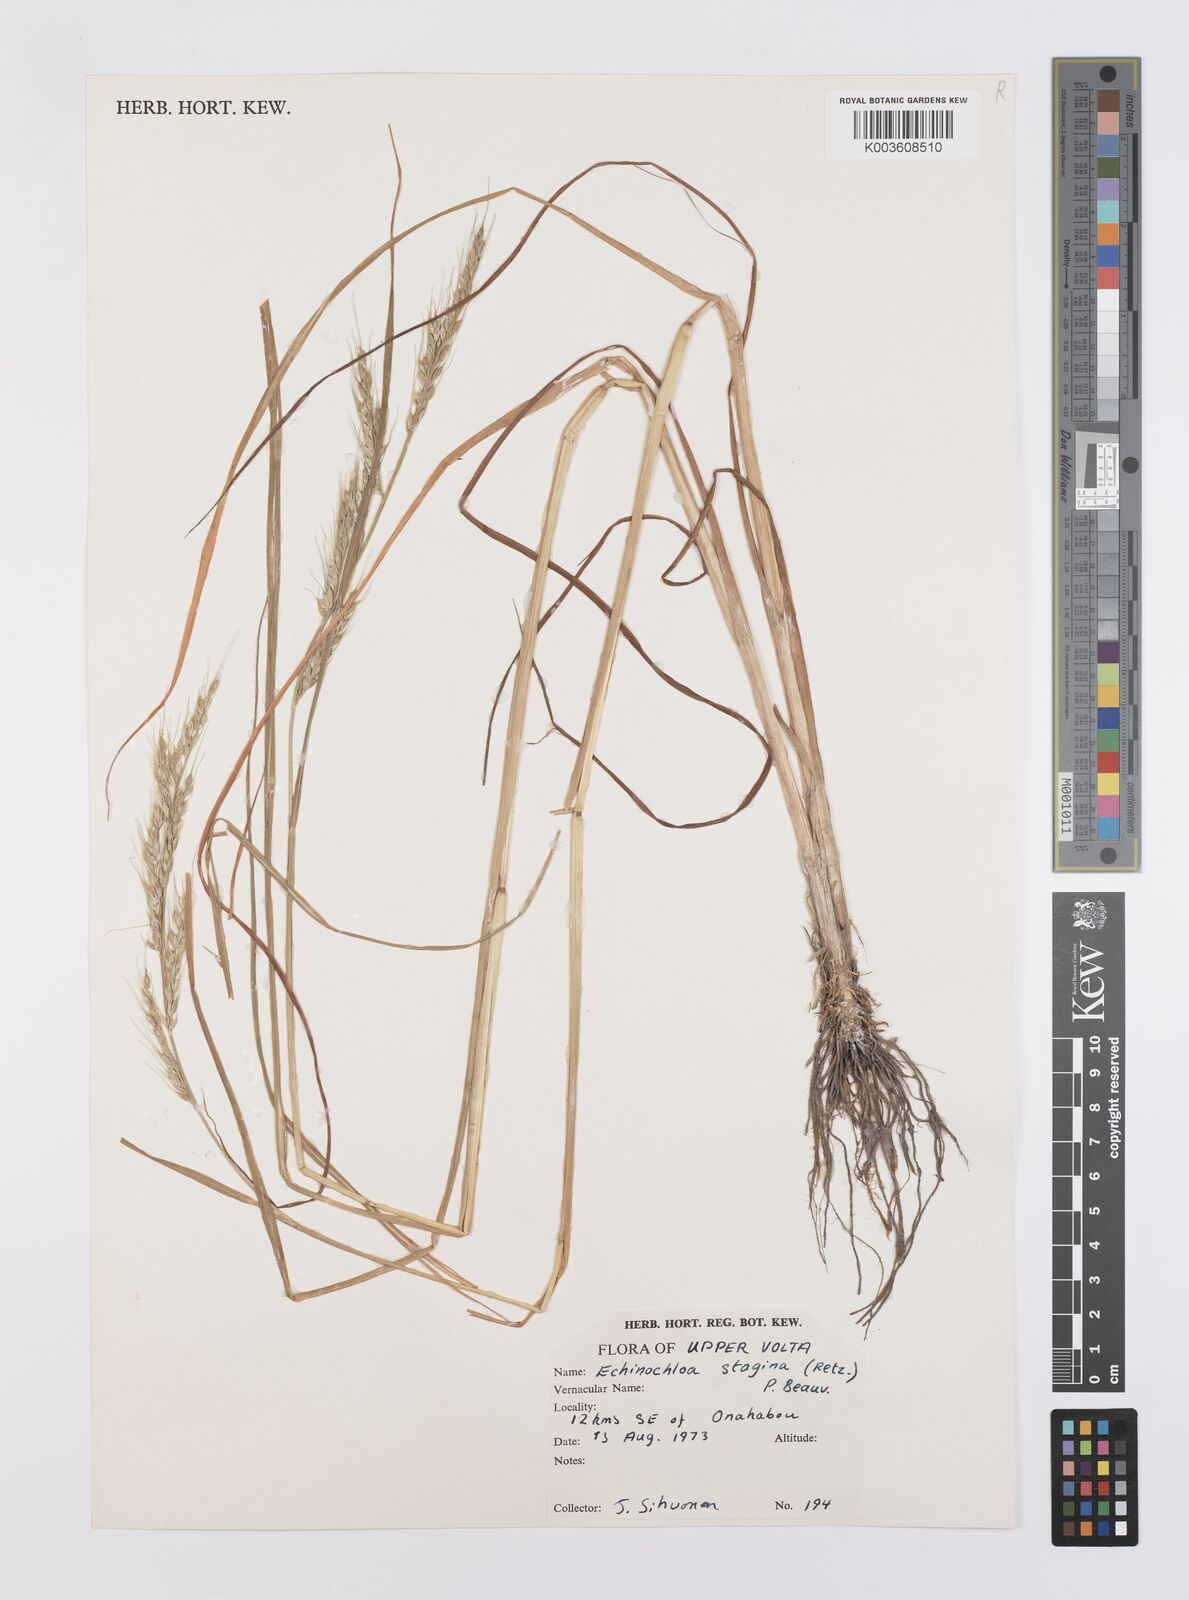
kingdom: Plantae
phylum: Tracheophyta
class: Liliopsida
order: Poales
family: Poaceae
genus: Echinochloa
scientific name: Echinochloa stagnina
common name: Burgu grass
